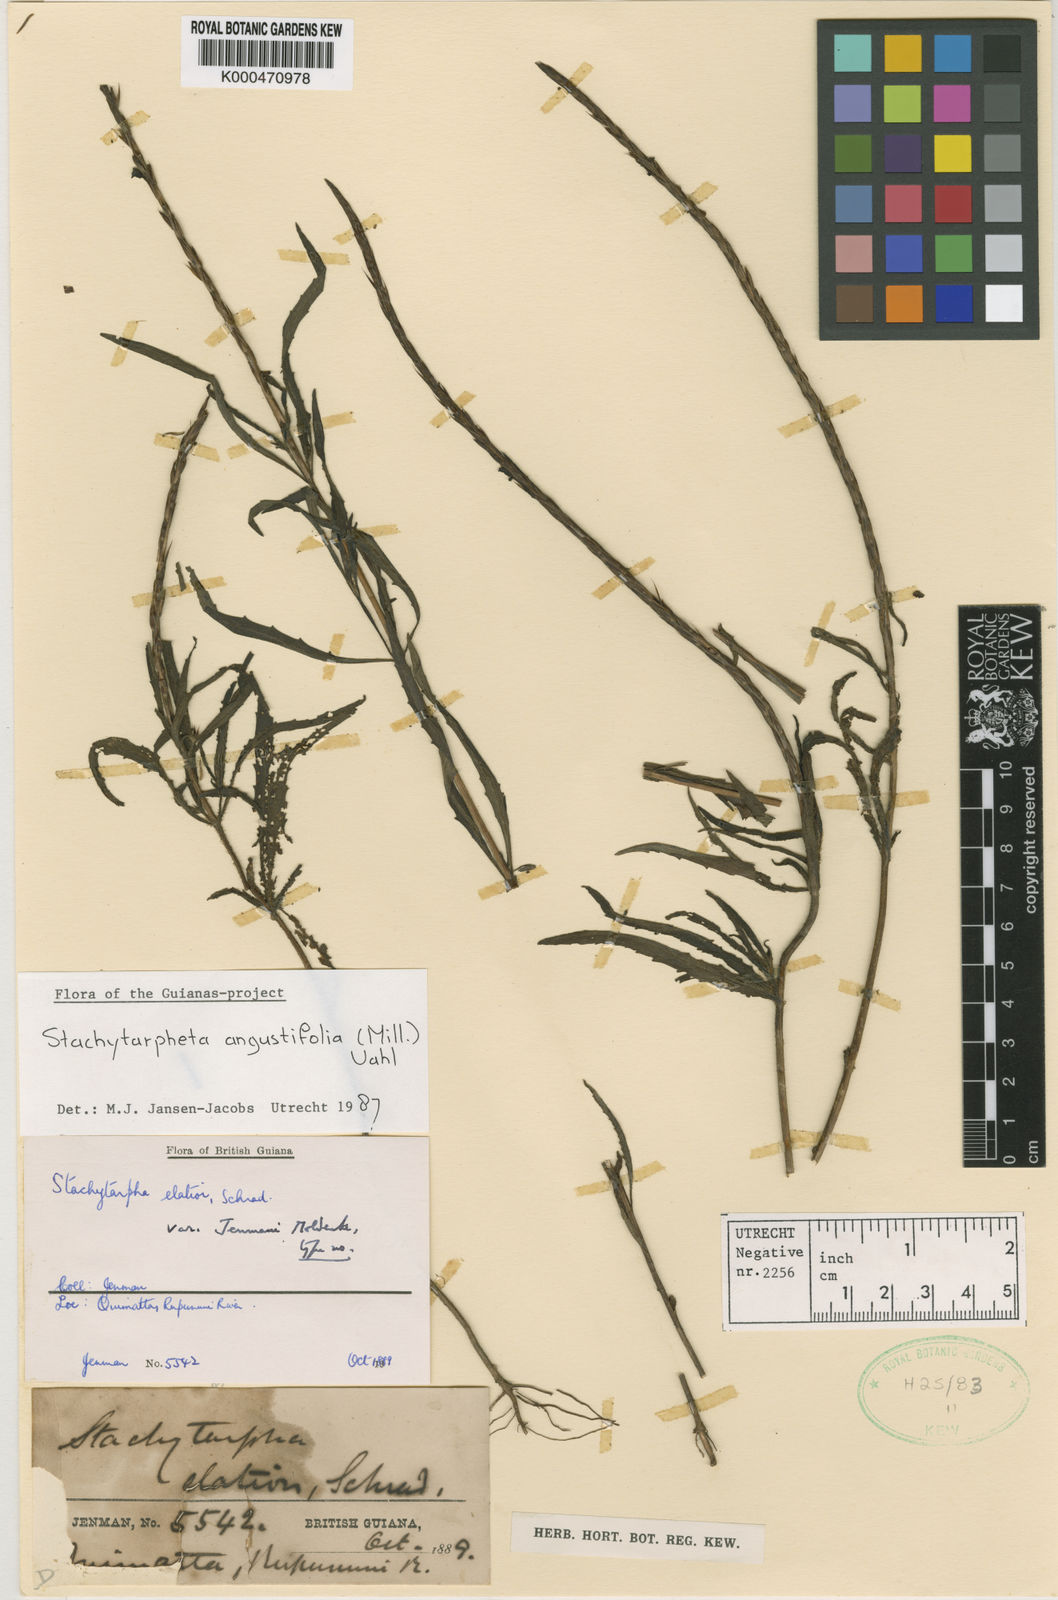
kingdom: Plantae
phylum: Tracheophyta
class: Magnoliopsida
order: Lamiales
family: Verbenaceae
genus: Stachytarpheta
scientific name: Stachytarpheta indica
